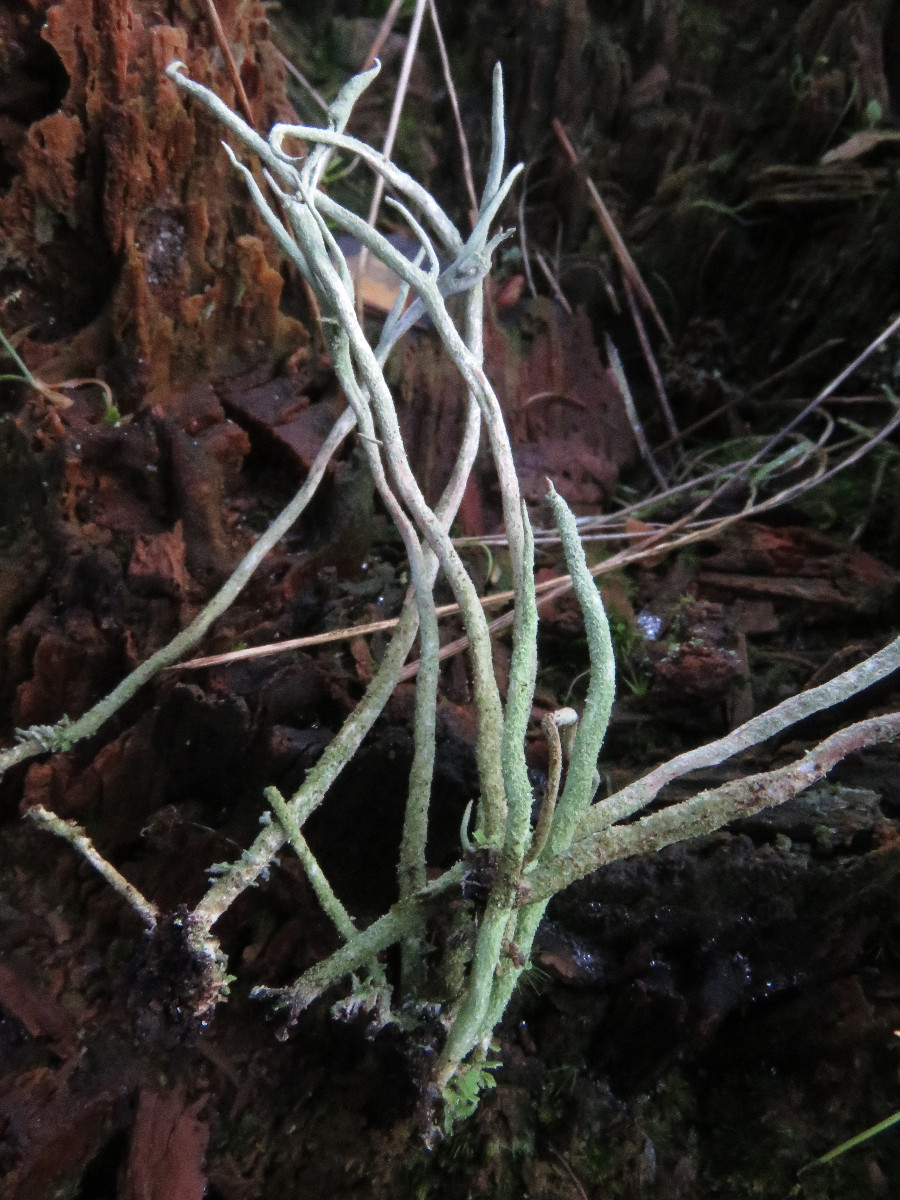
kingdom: Fungi
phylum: Ascomycota
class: Lecanoromycetes
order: Lecanorales
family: Cladoniaceae
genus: Cladonia
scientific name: Cladonia subulata
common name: spids bægerlav
